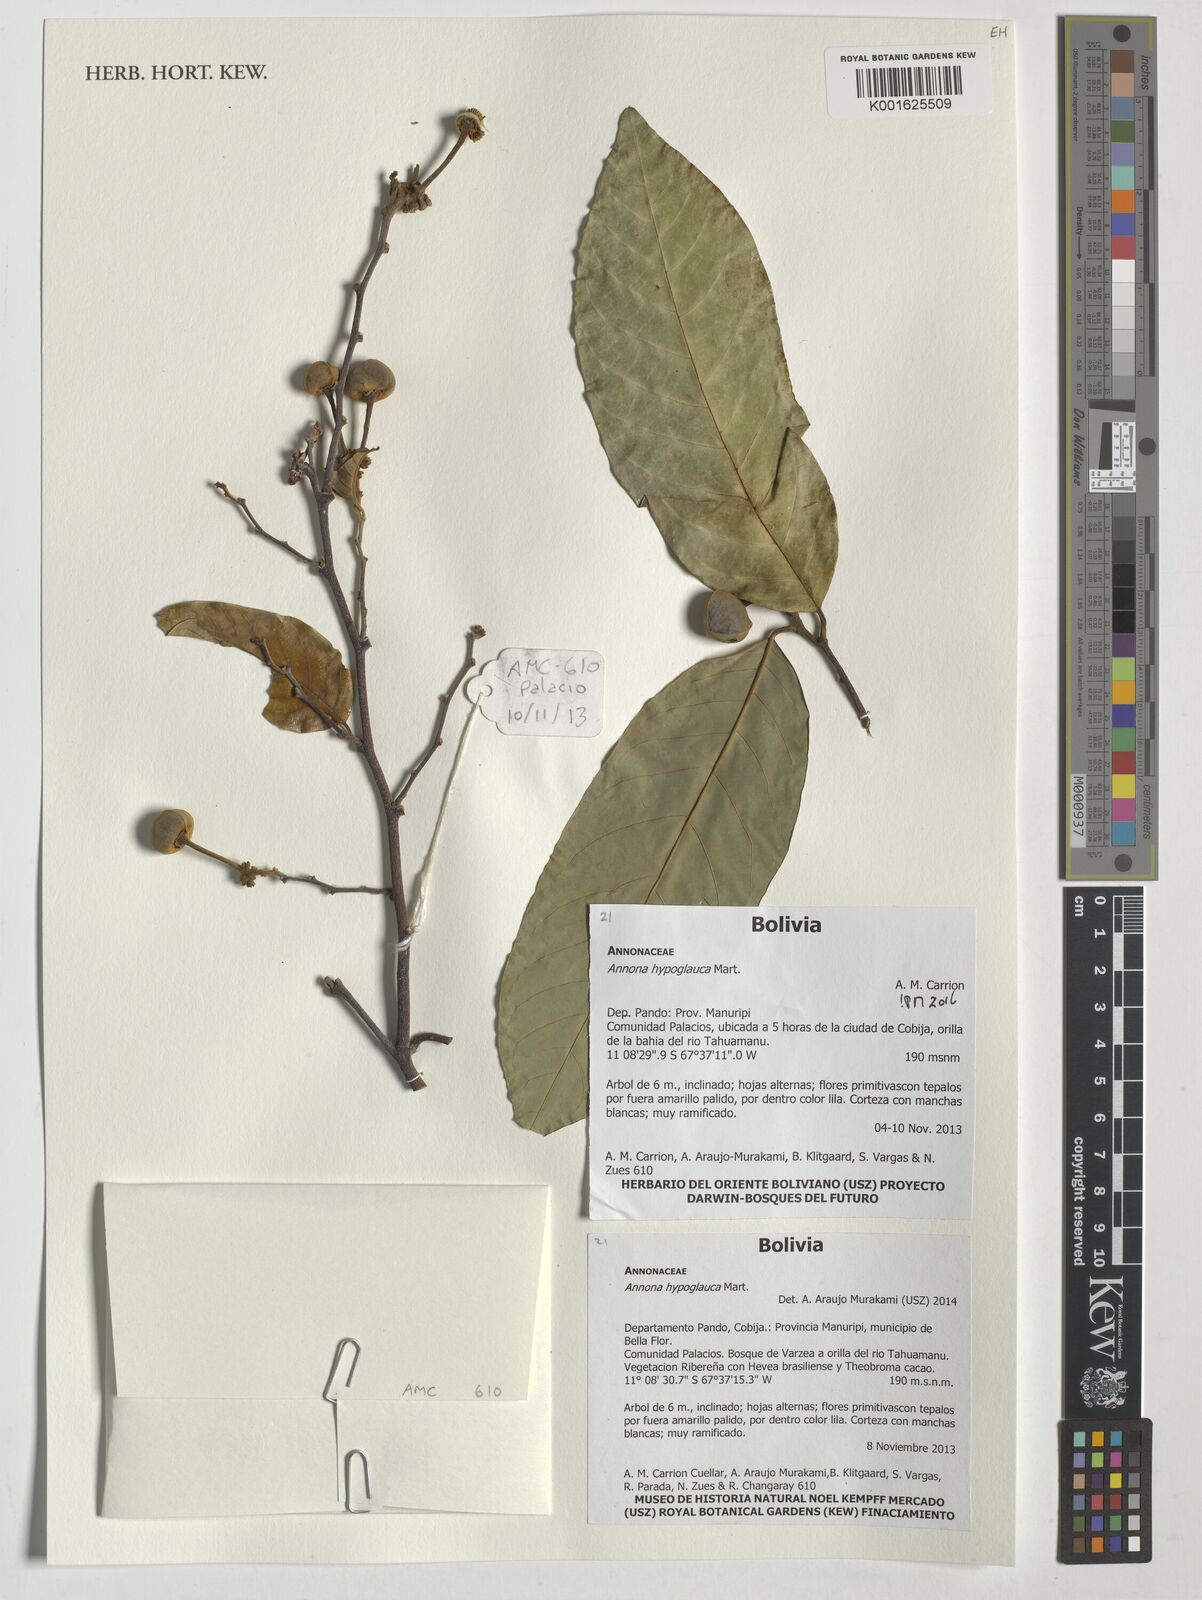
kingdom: Plantae
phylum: Tracheophyta
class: Magnoliopsida
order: Magnoliales
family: Annonaceae
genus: Annona
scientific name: Annona hypoglauca
